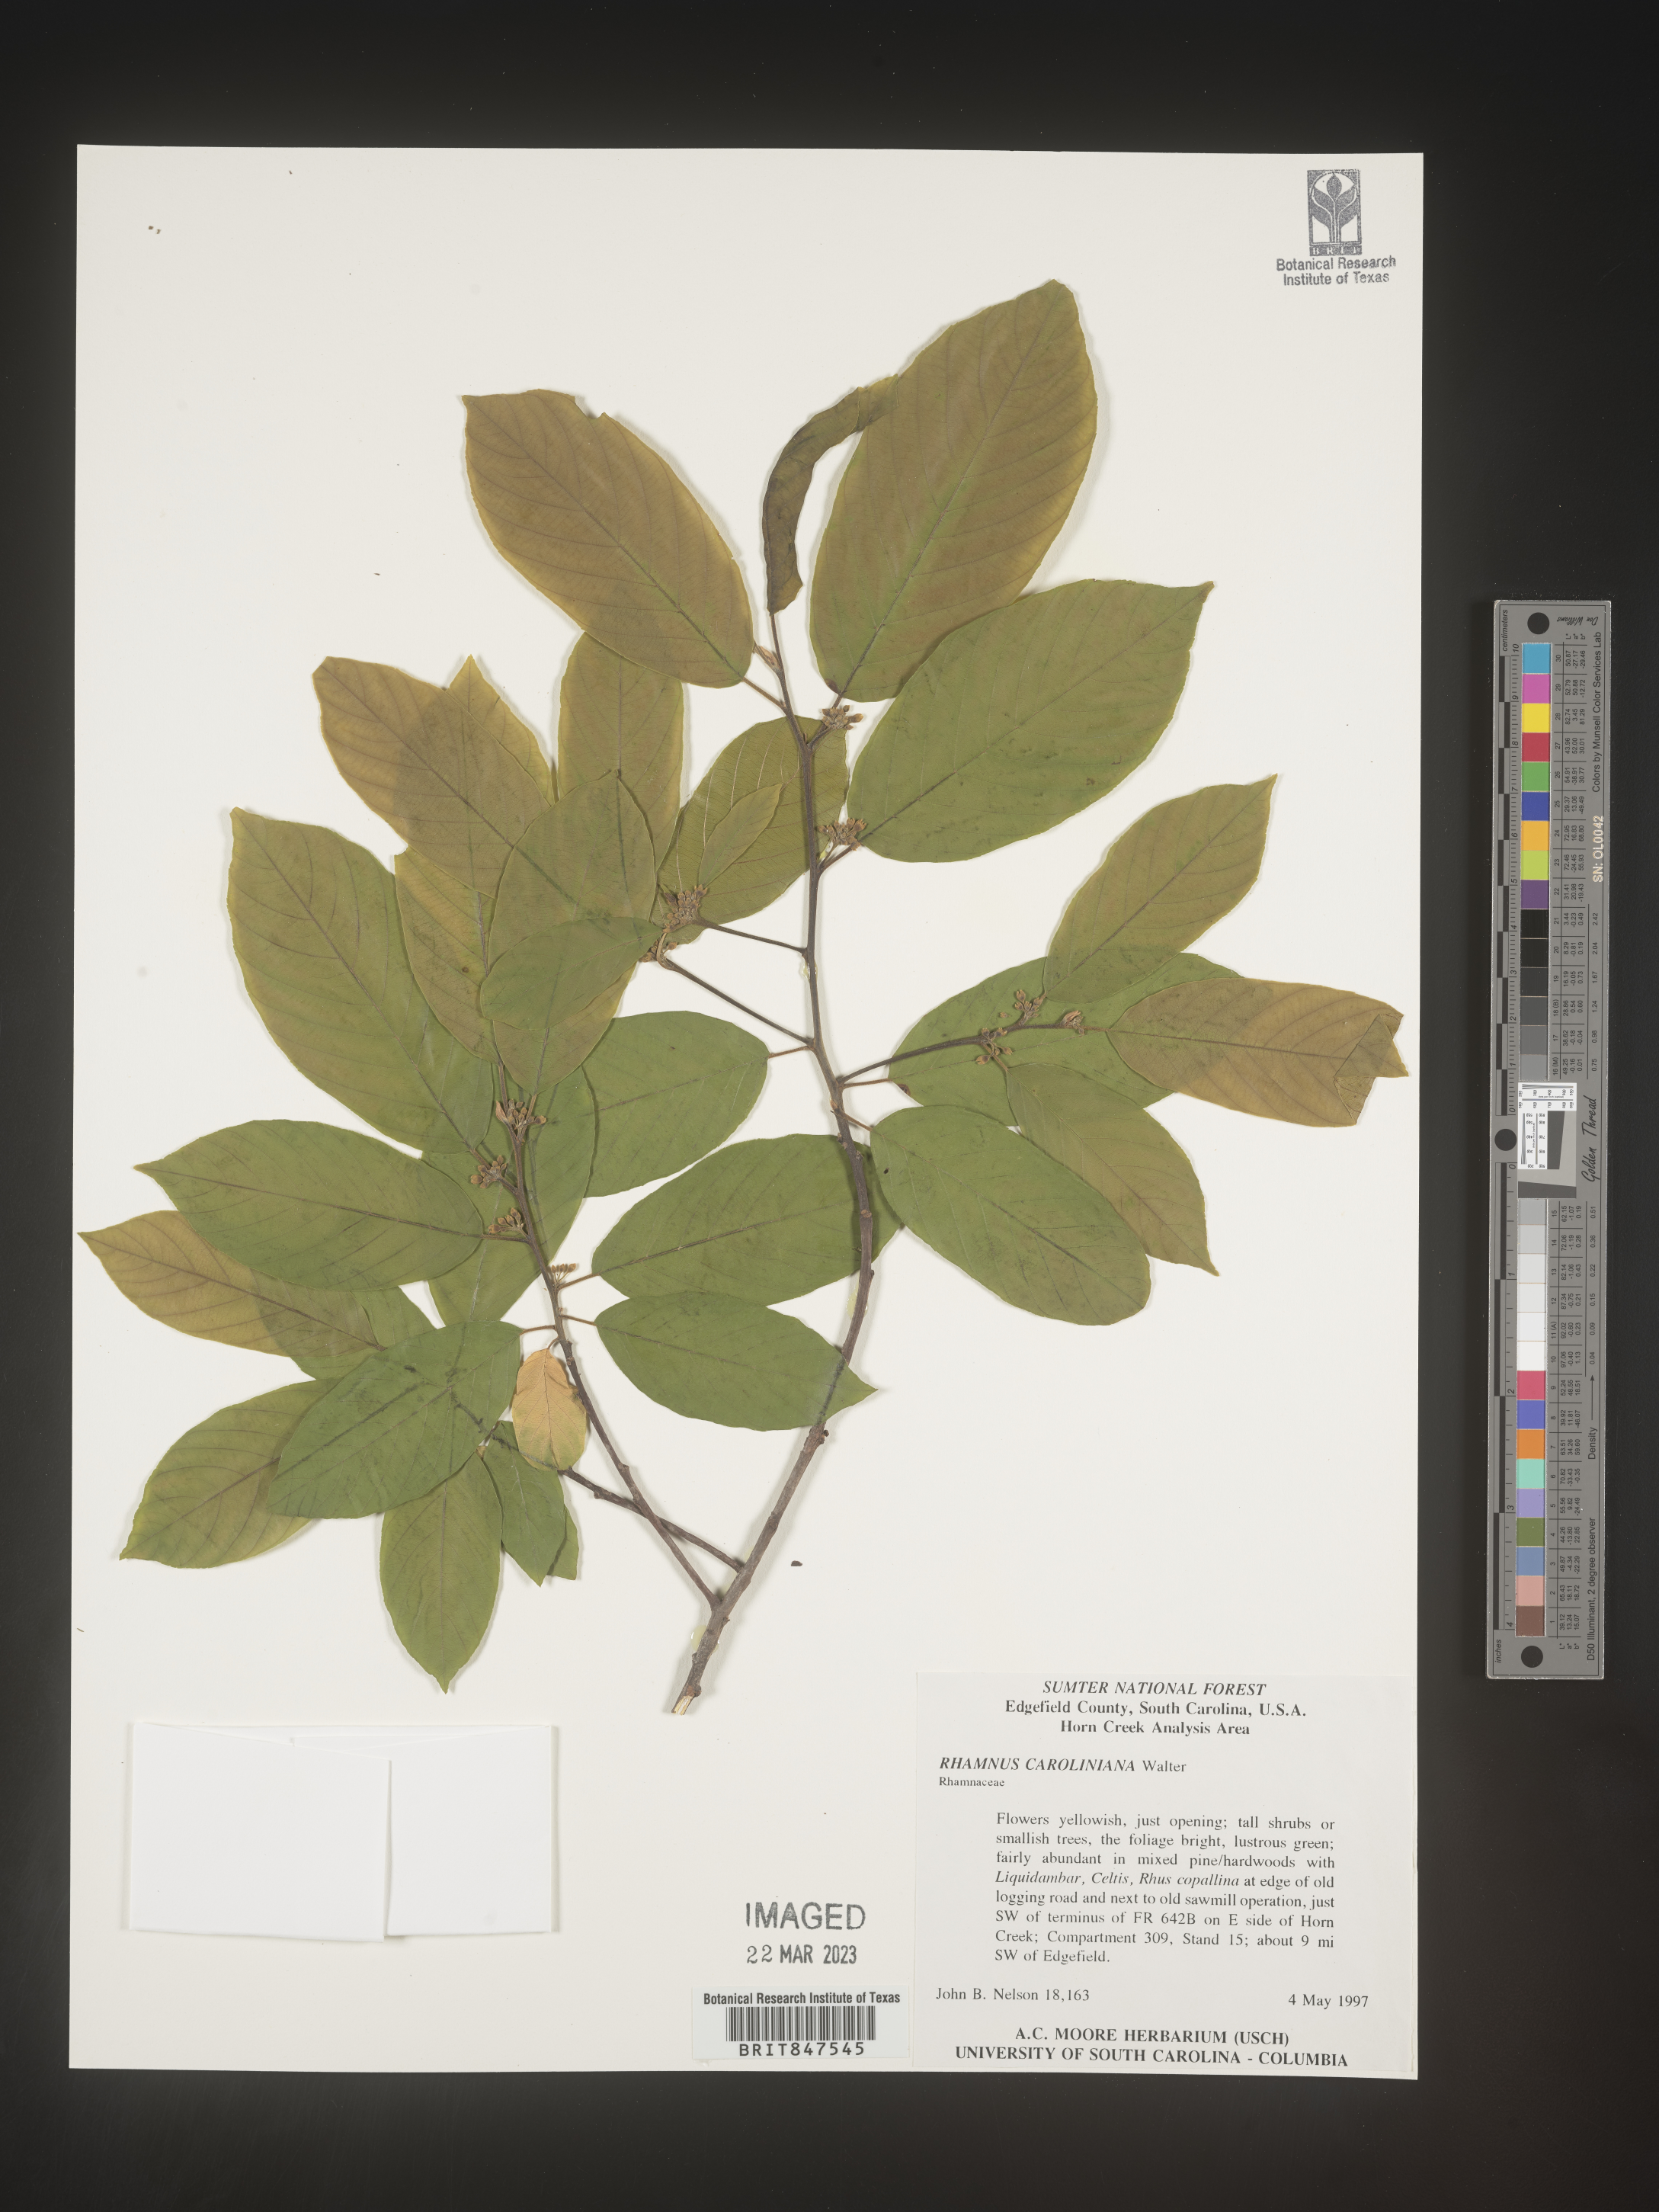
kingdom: Plantae
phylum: Tracheophyta
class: Magnoliopsida
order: Rosales
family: Rhamnaceae
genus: Frangula
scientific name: Frangula caroliniana
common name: Carolina buckthorn
